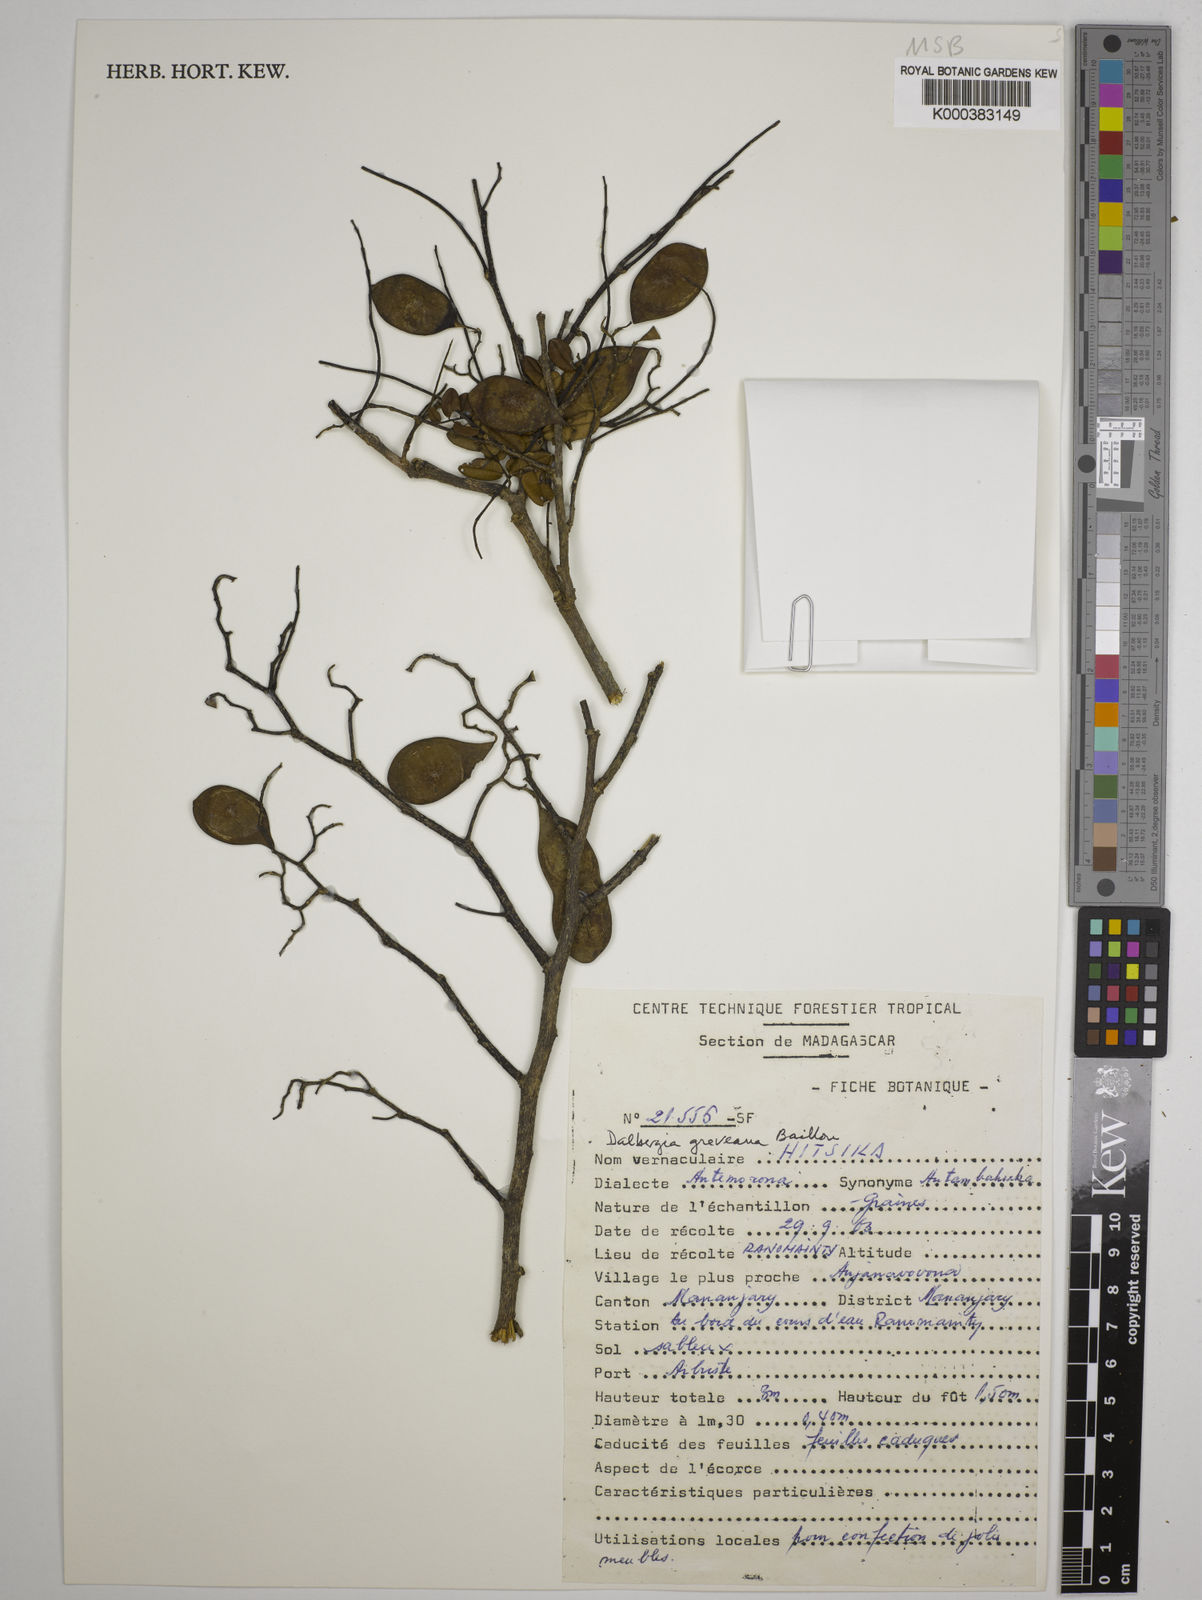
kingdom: Plantae
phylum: Tracheophyta
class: Magnoliopsida
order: Fabales
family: Fabaceae
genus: Dalbergia
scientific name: Dalbergia greveana
